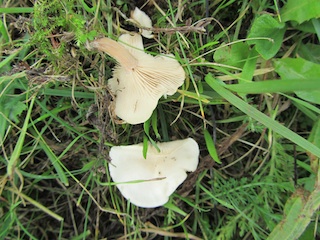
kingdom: Fungi
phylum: Basidiomycota
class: Agaricomycetes
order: Agaricales
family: Tricholomataceae
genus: Clitocybe
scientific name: Clitocybe rivulosa
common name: eng-tragthat
